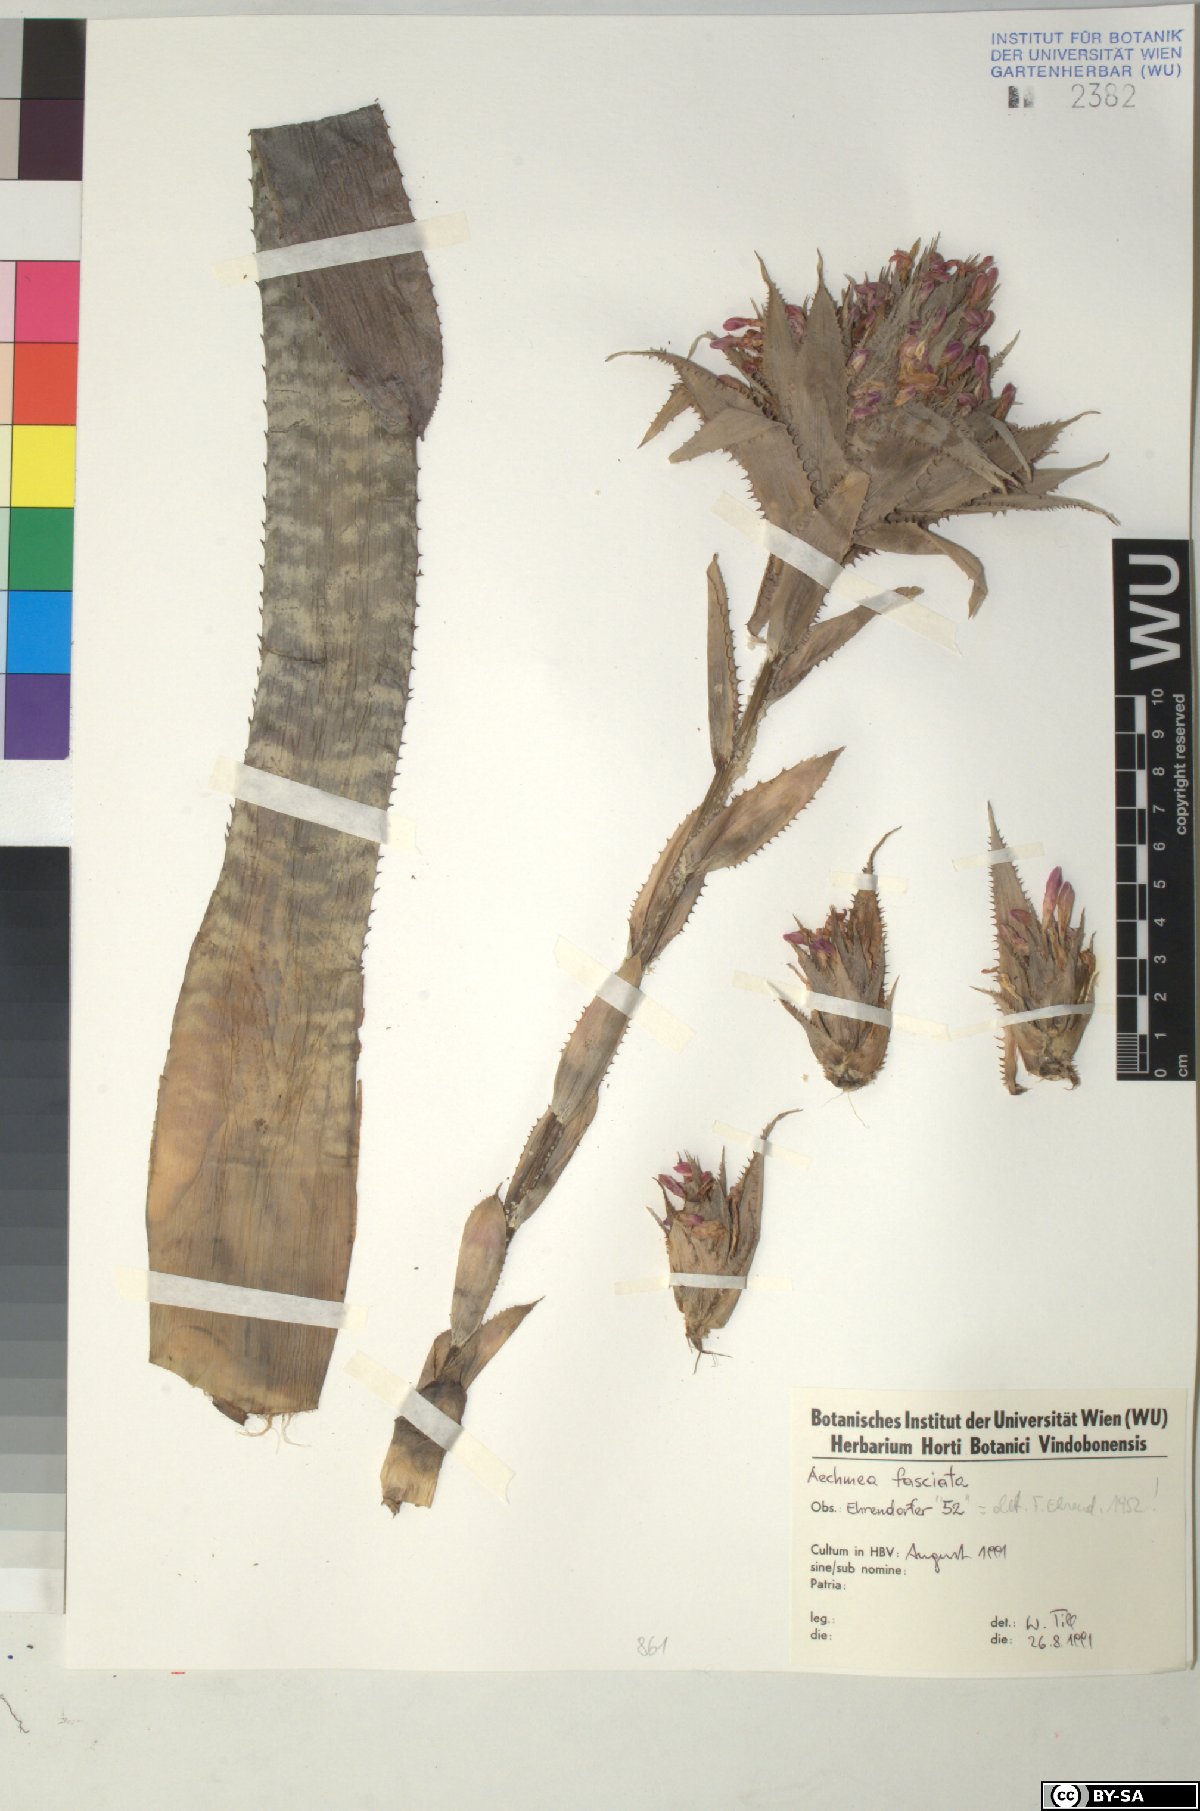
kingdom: Plantae
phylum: Tracheophyta
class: Liliopsida
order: Poales
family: Bromeliaceae
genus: Aechmea
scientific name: Aechmea
